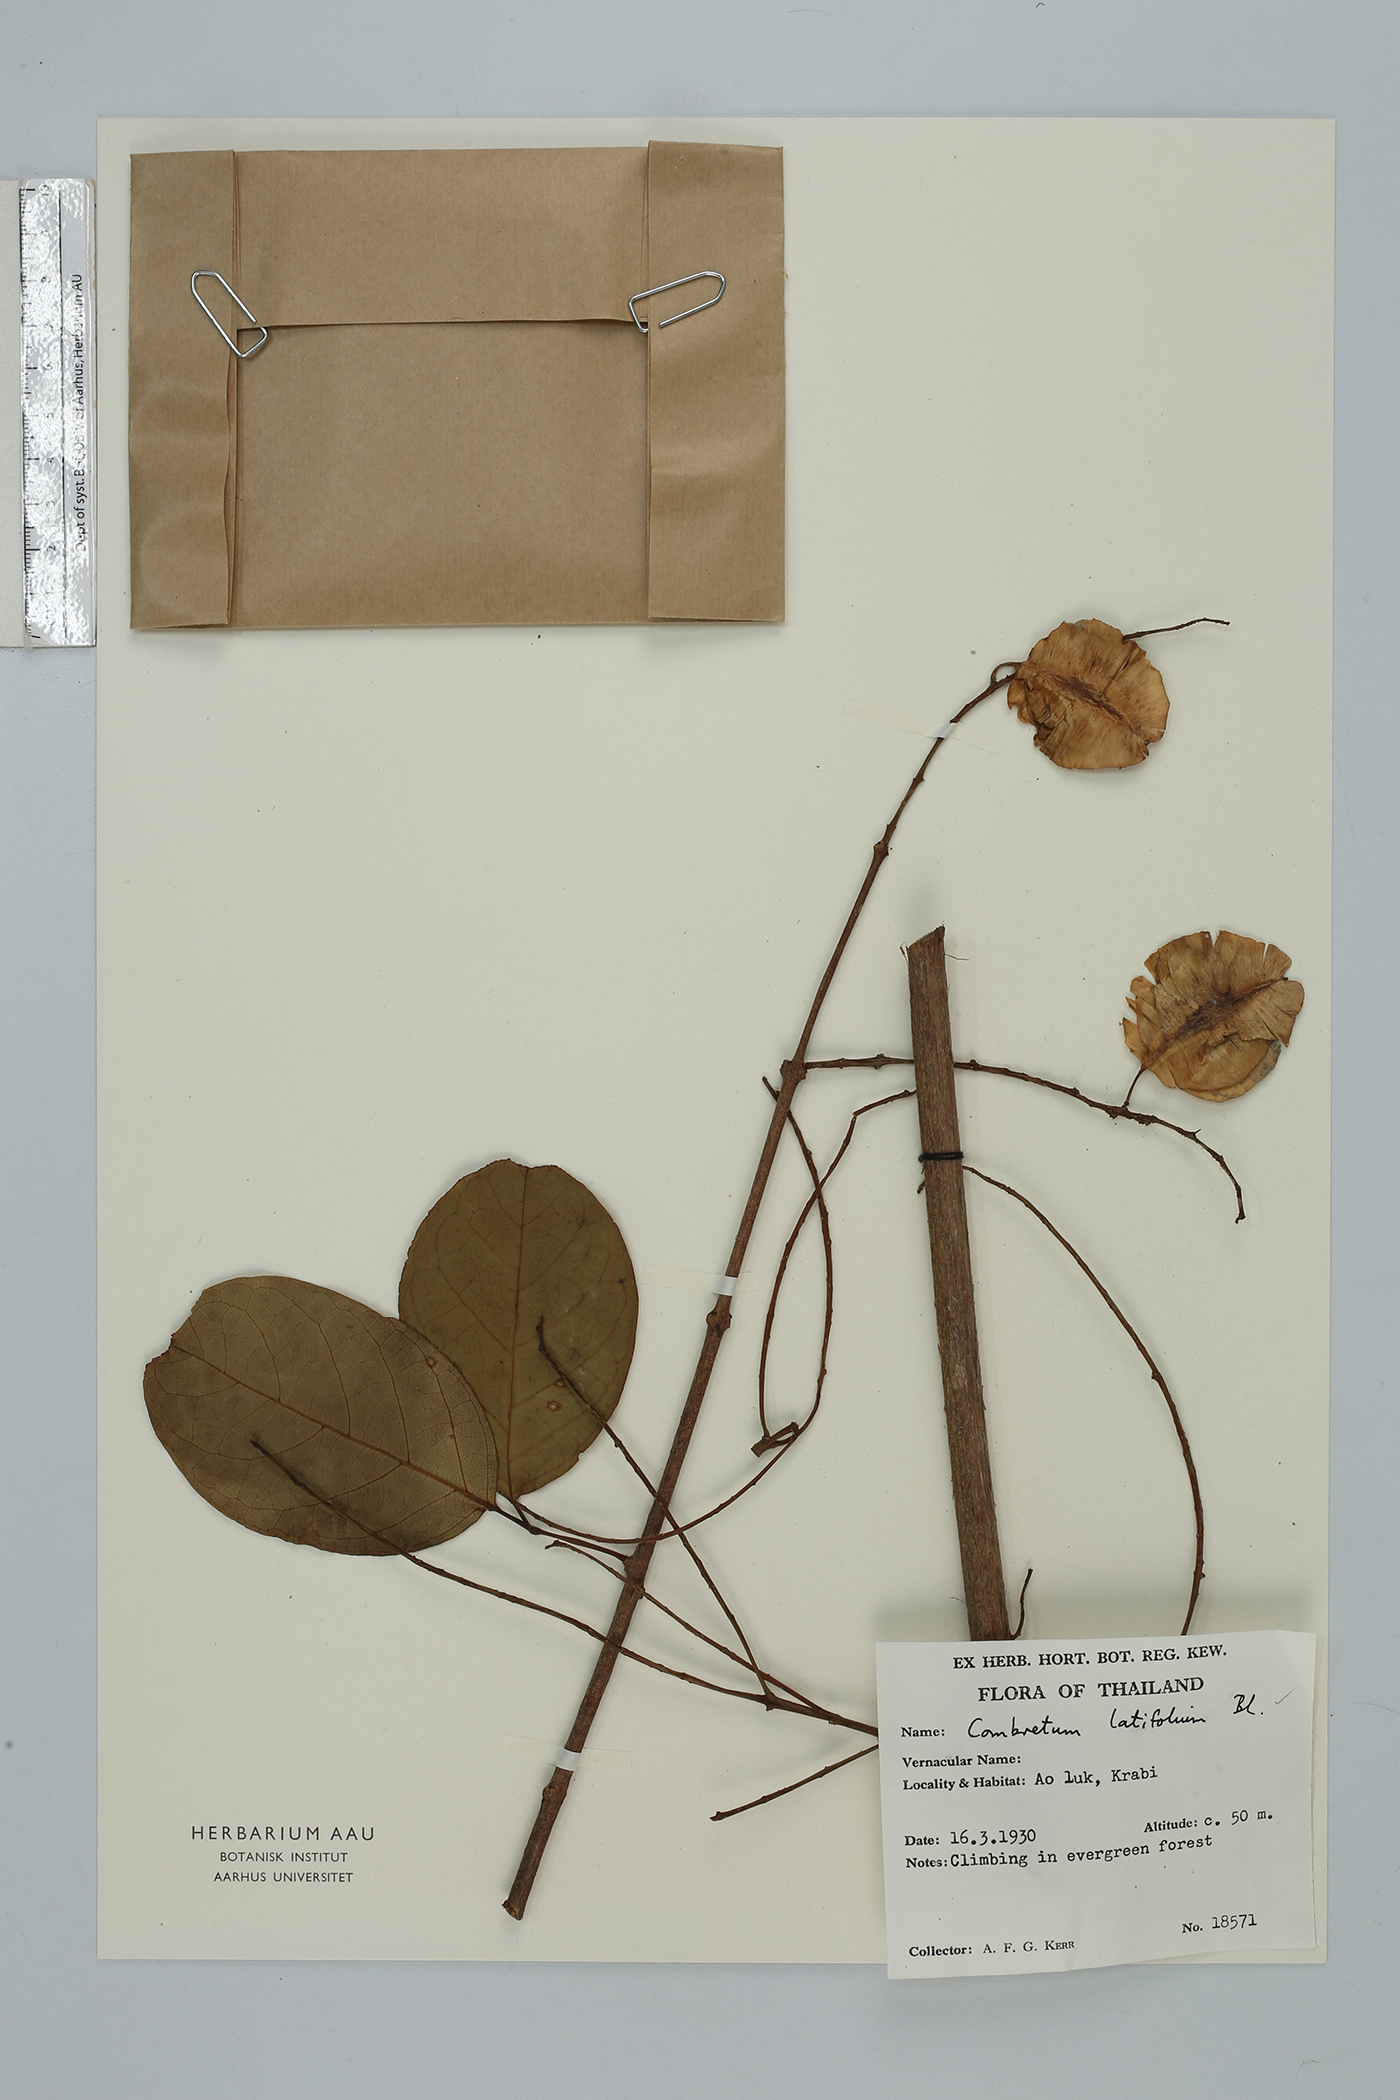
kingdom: Plantae
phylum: Tracheophyta
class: Magnoliopsida
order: Myrtales
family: Combretaceae
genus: Combretum
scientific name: Combretum latifolium
